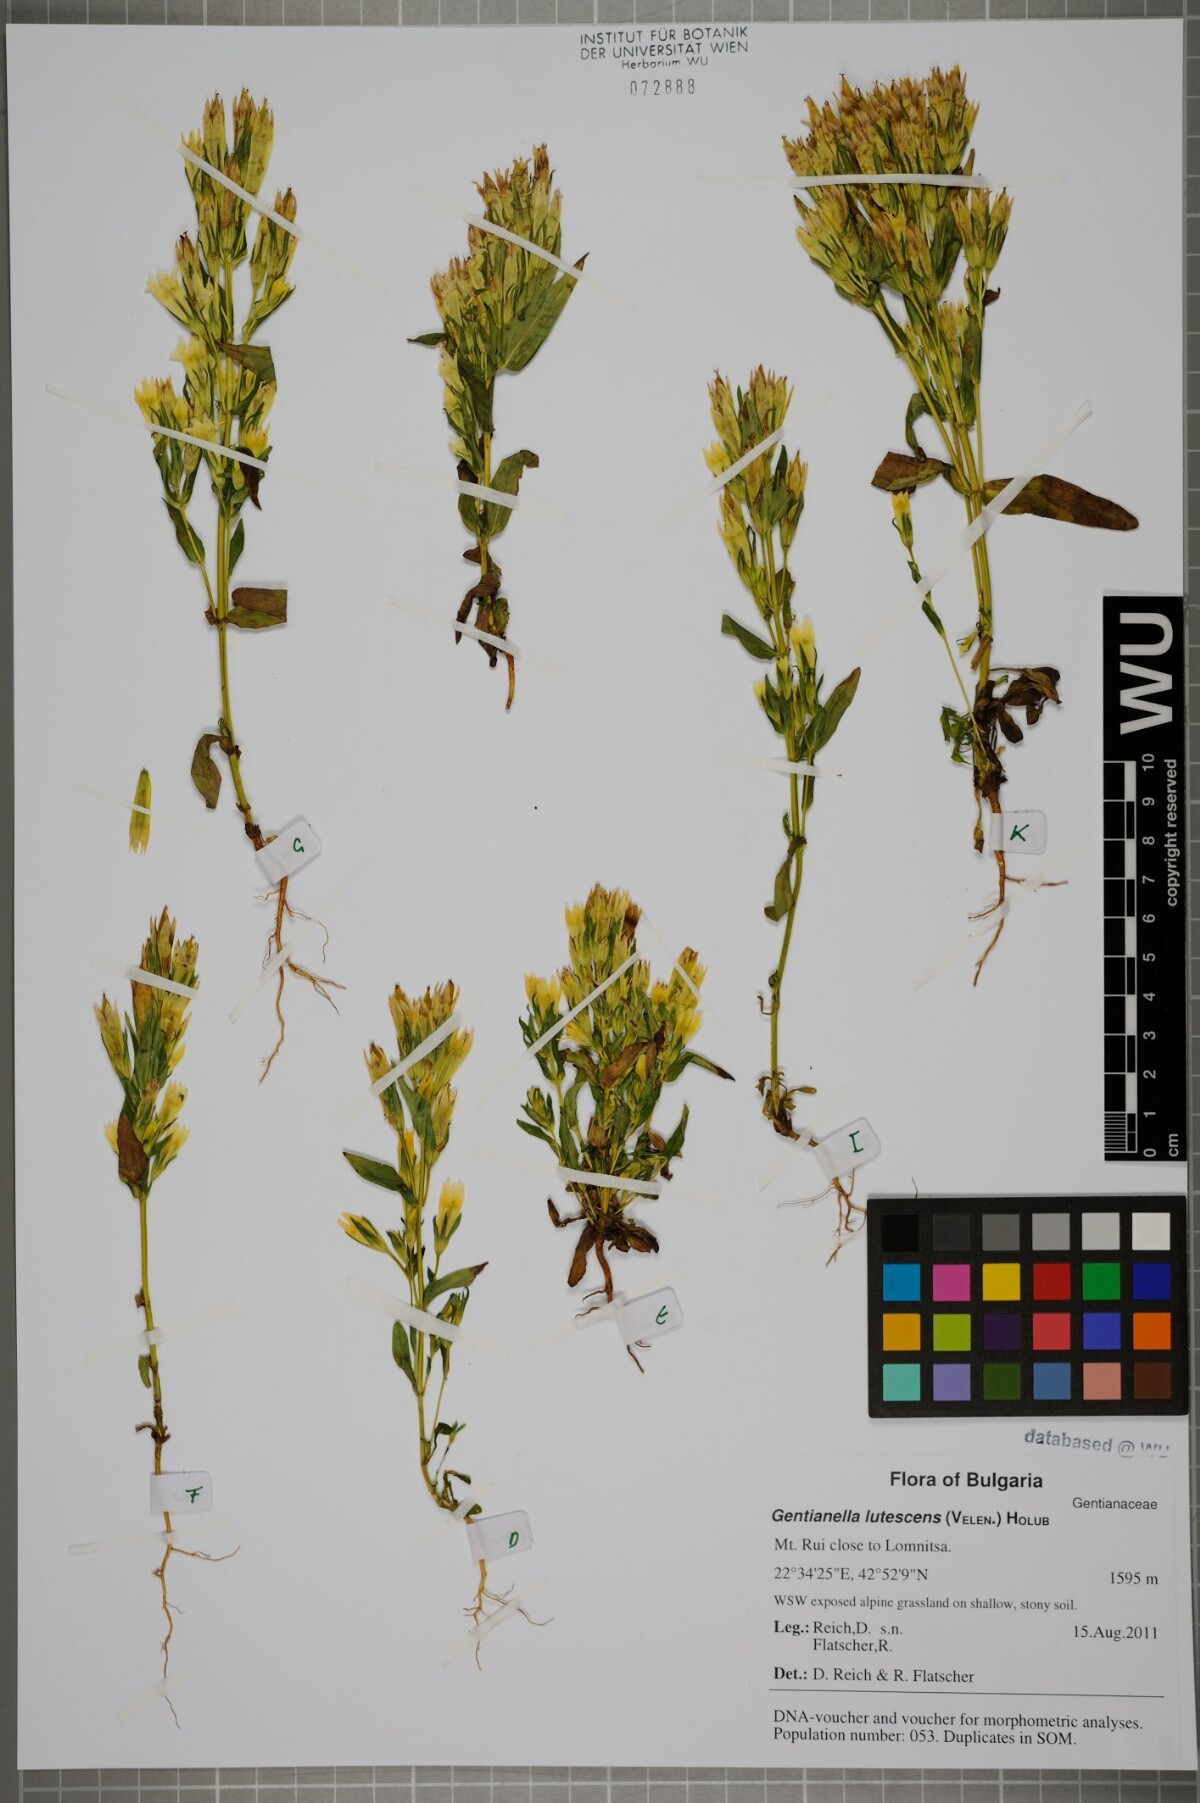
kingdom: Plantae
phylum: Tracheophyta
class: Magnoliopsida
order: Gentianales
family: Gentianaceae
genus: Gentianella
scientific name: Gentianella praecox
